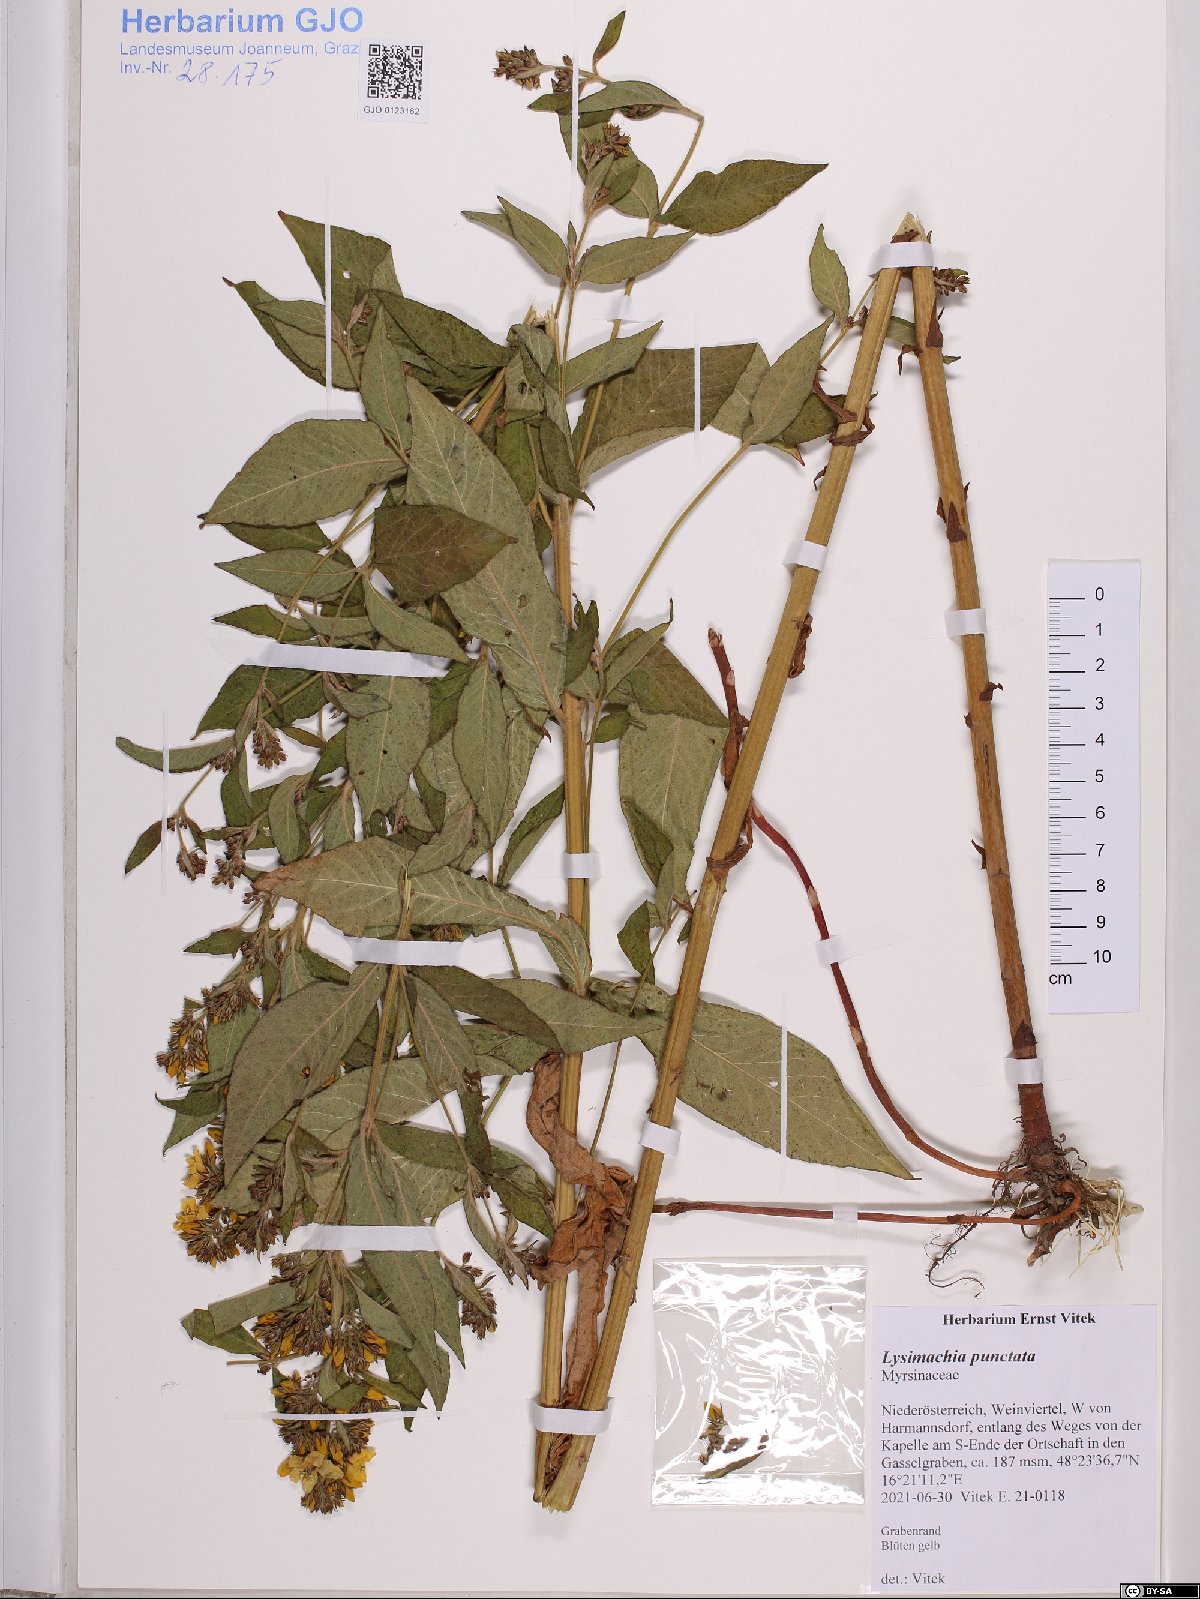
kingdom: Plantae
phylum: Tracheophyta
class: Magnoliopsida
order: Ericales
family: Primulaceae
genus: Lysimachia
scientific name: Lysimachia punctata
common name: Dotted loosestrife
